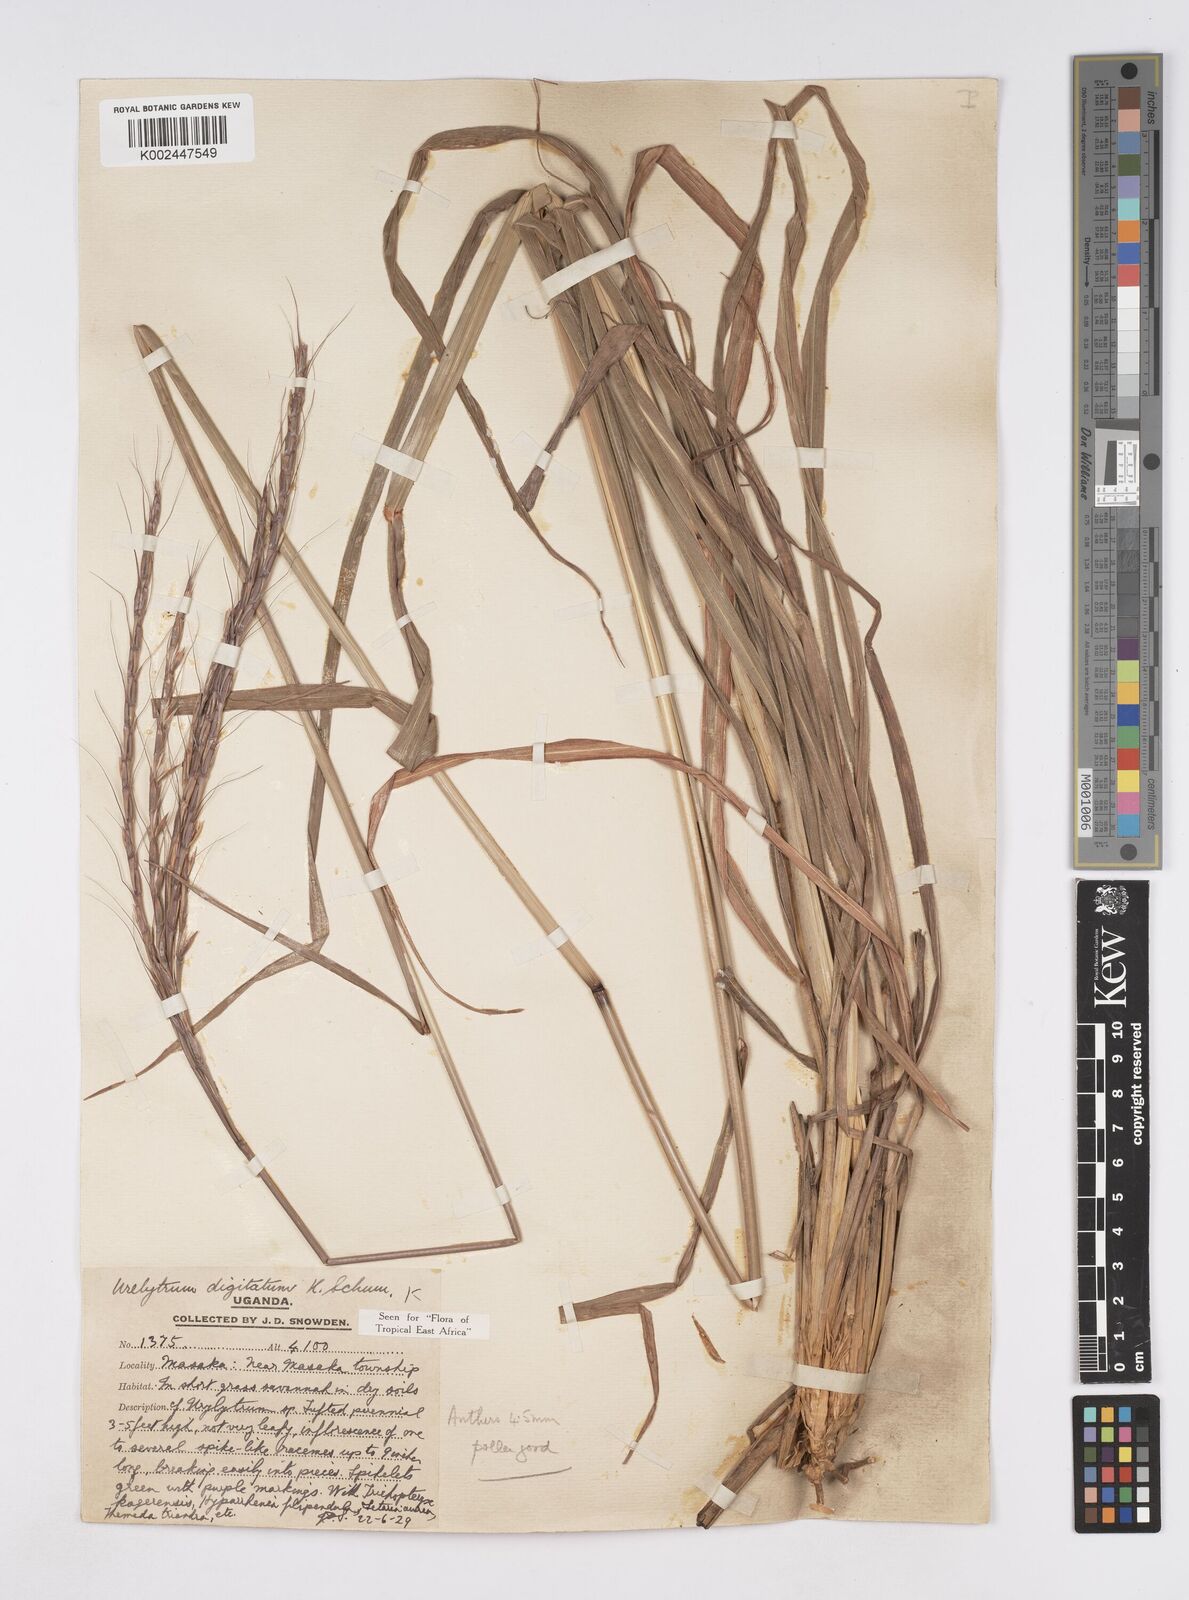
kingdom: Plantae
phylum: Tracheophyta
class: Liliopsida
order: Poales
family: Poaceae
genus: Urelytrum
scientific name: Urelytrum digitatum
